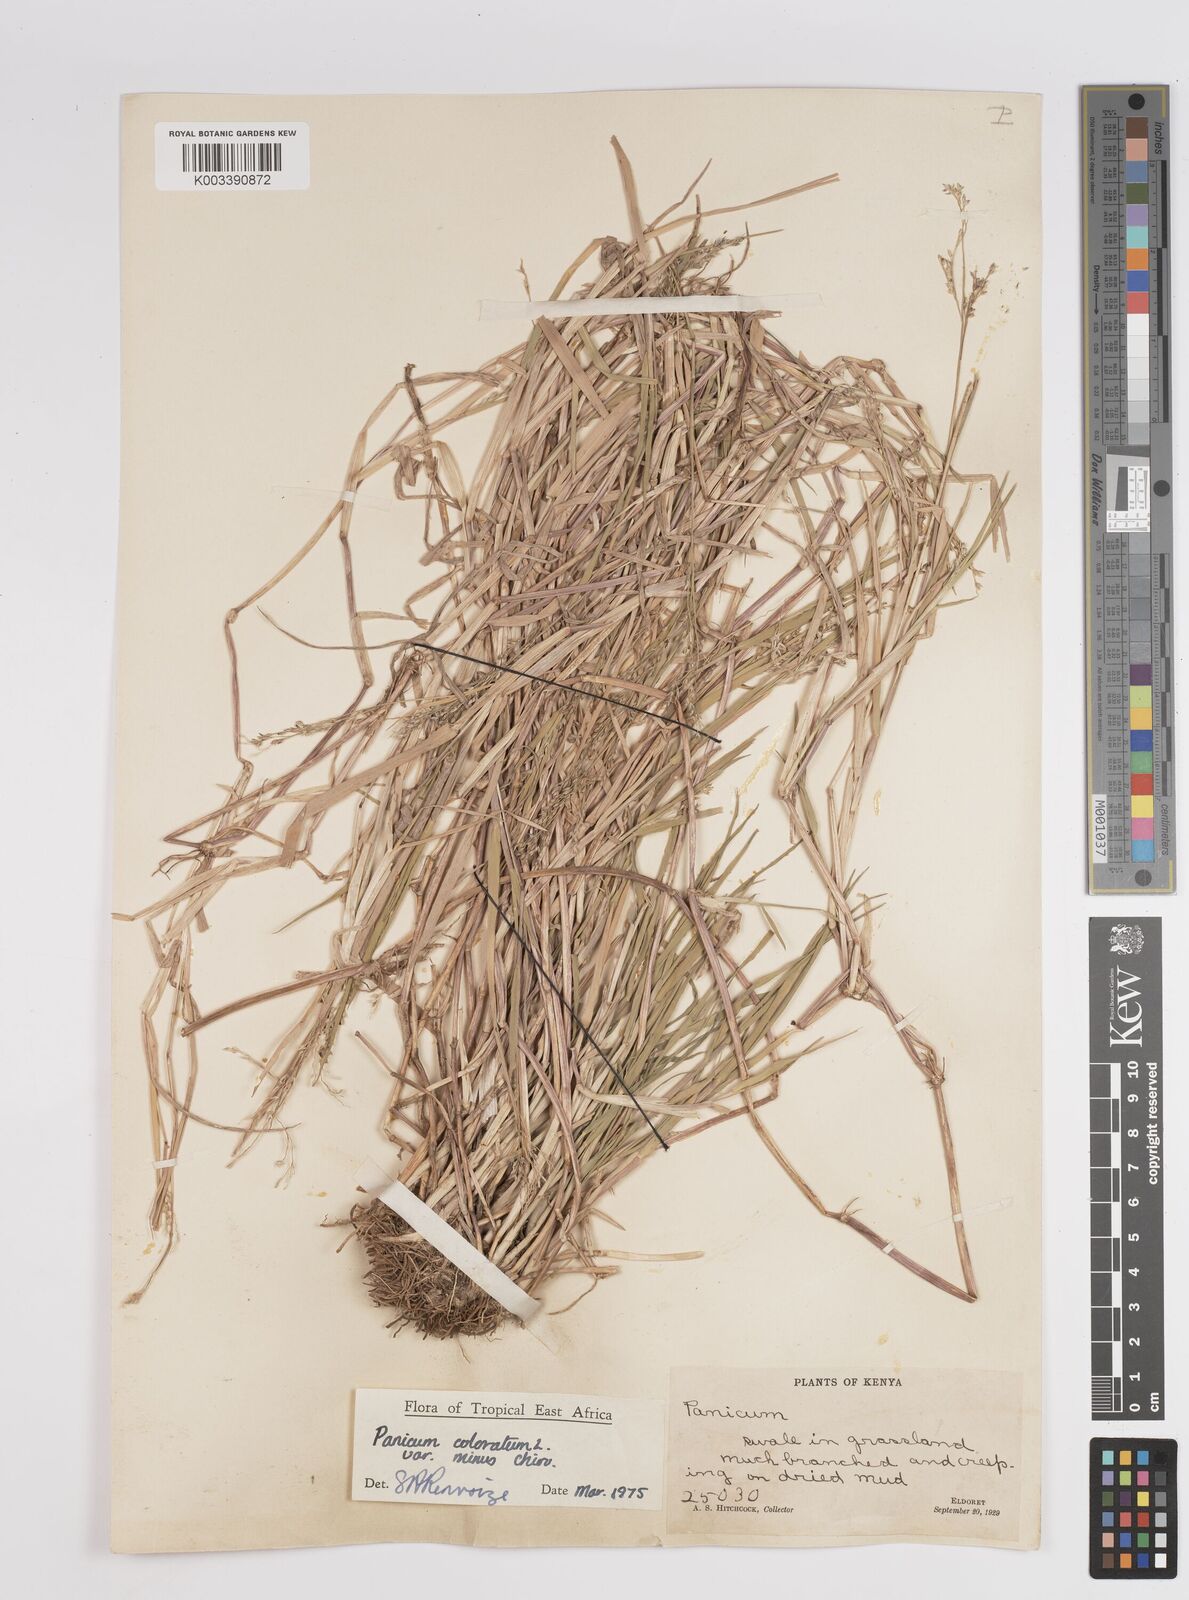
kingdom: Plantae
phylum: Tracheophyta
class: Liliopsida
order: Poales
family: Poaceae
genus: Panicum
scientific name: Panicum coloratum
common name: Kleingrass
